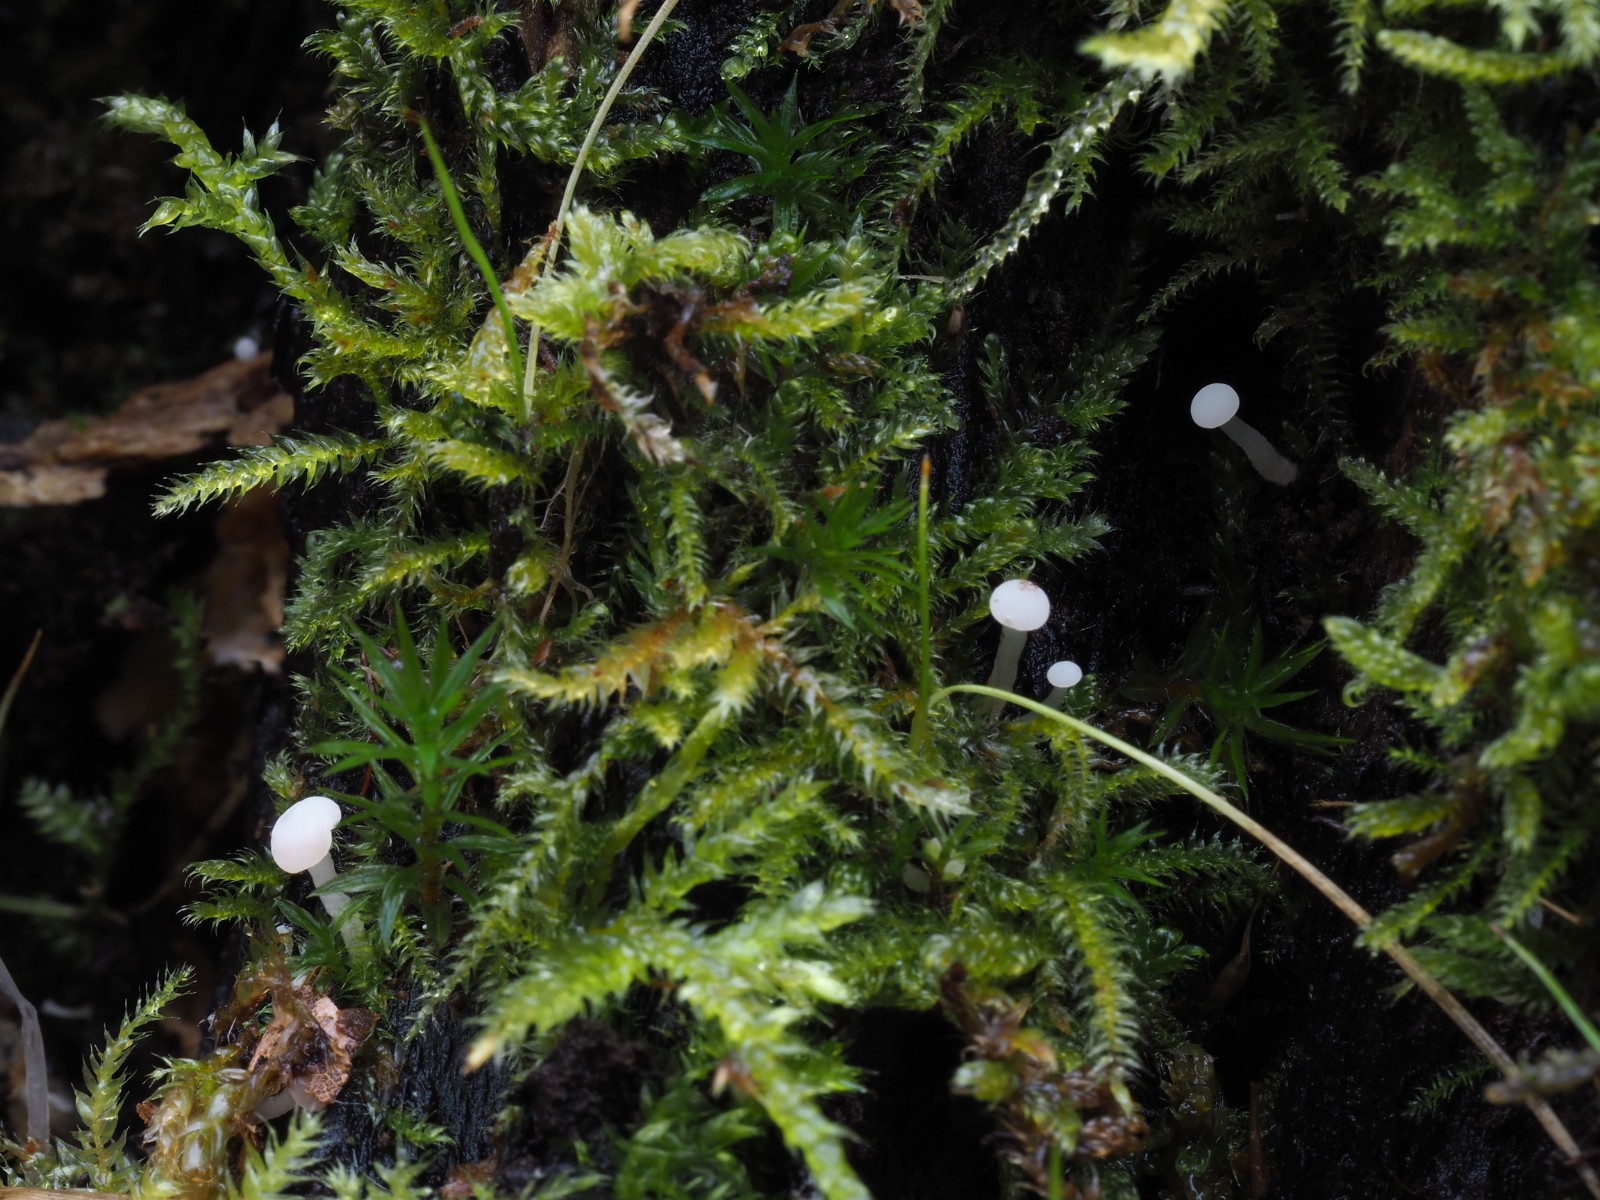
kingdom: Fungi
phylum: Ascomycota
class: Leotiomycetes
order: Helotiales
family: Tricladiaceae
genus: Cudoniella
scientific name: Cudoniella acicularis
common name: ege-dyndskive
